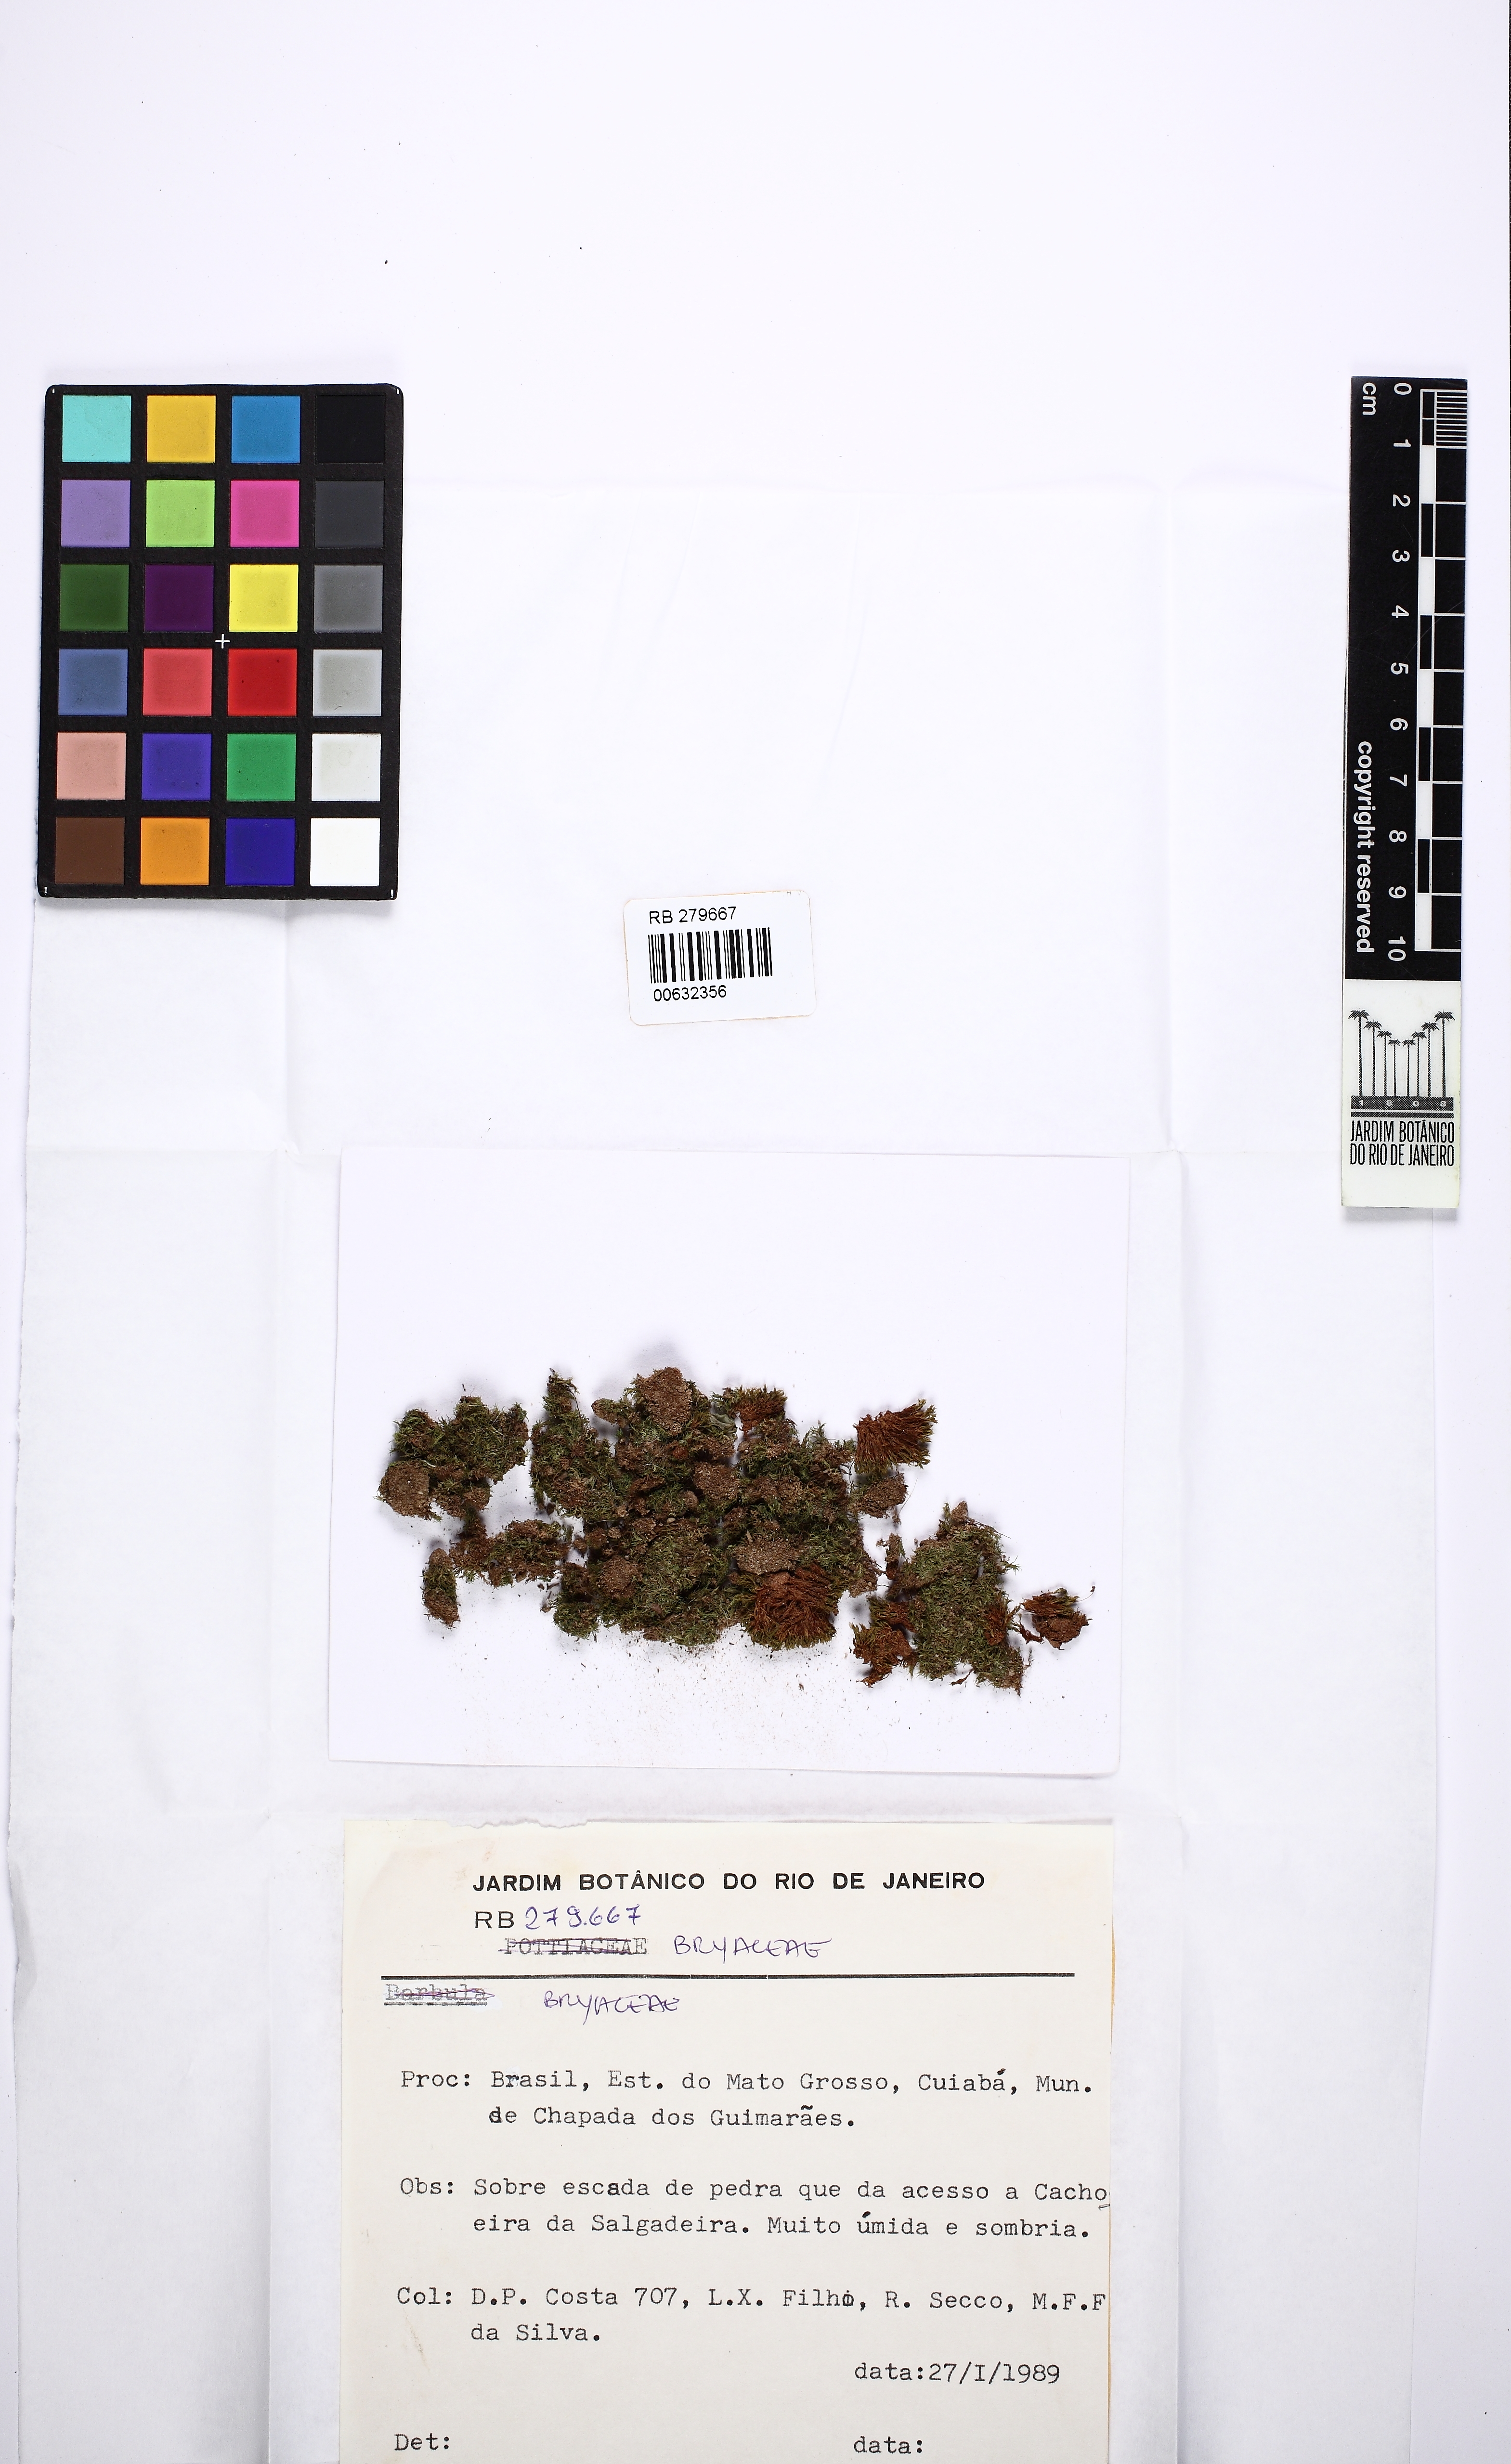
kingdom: Plantae
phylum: Bryophyta
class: Bryopsida
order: Bryales
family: Bryaceae
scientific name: Bryaceae
